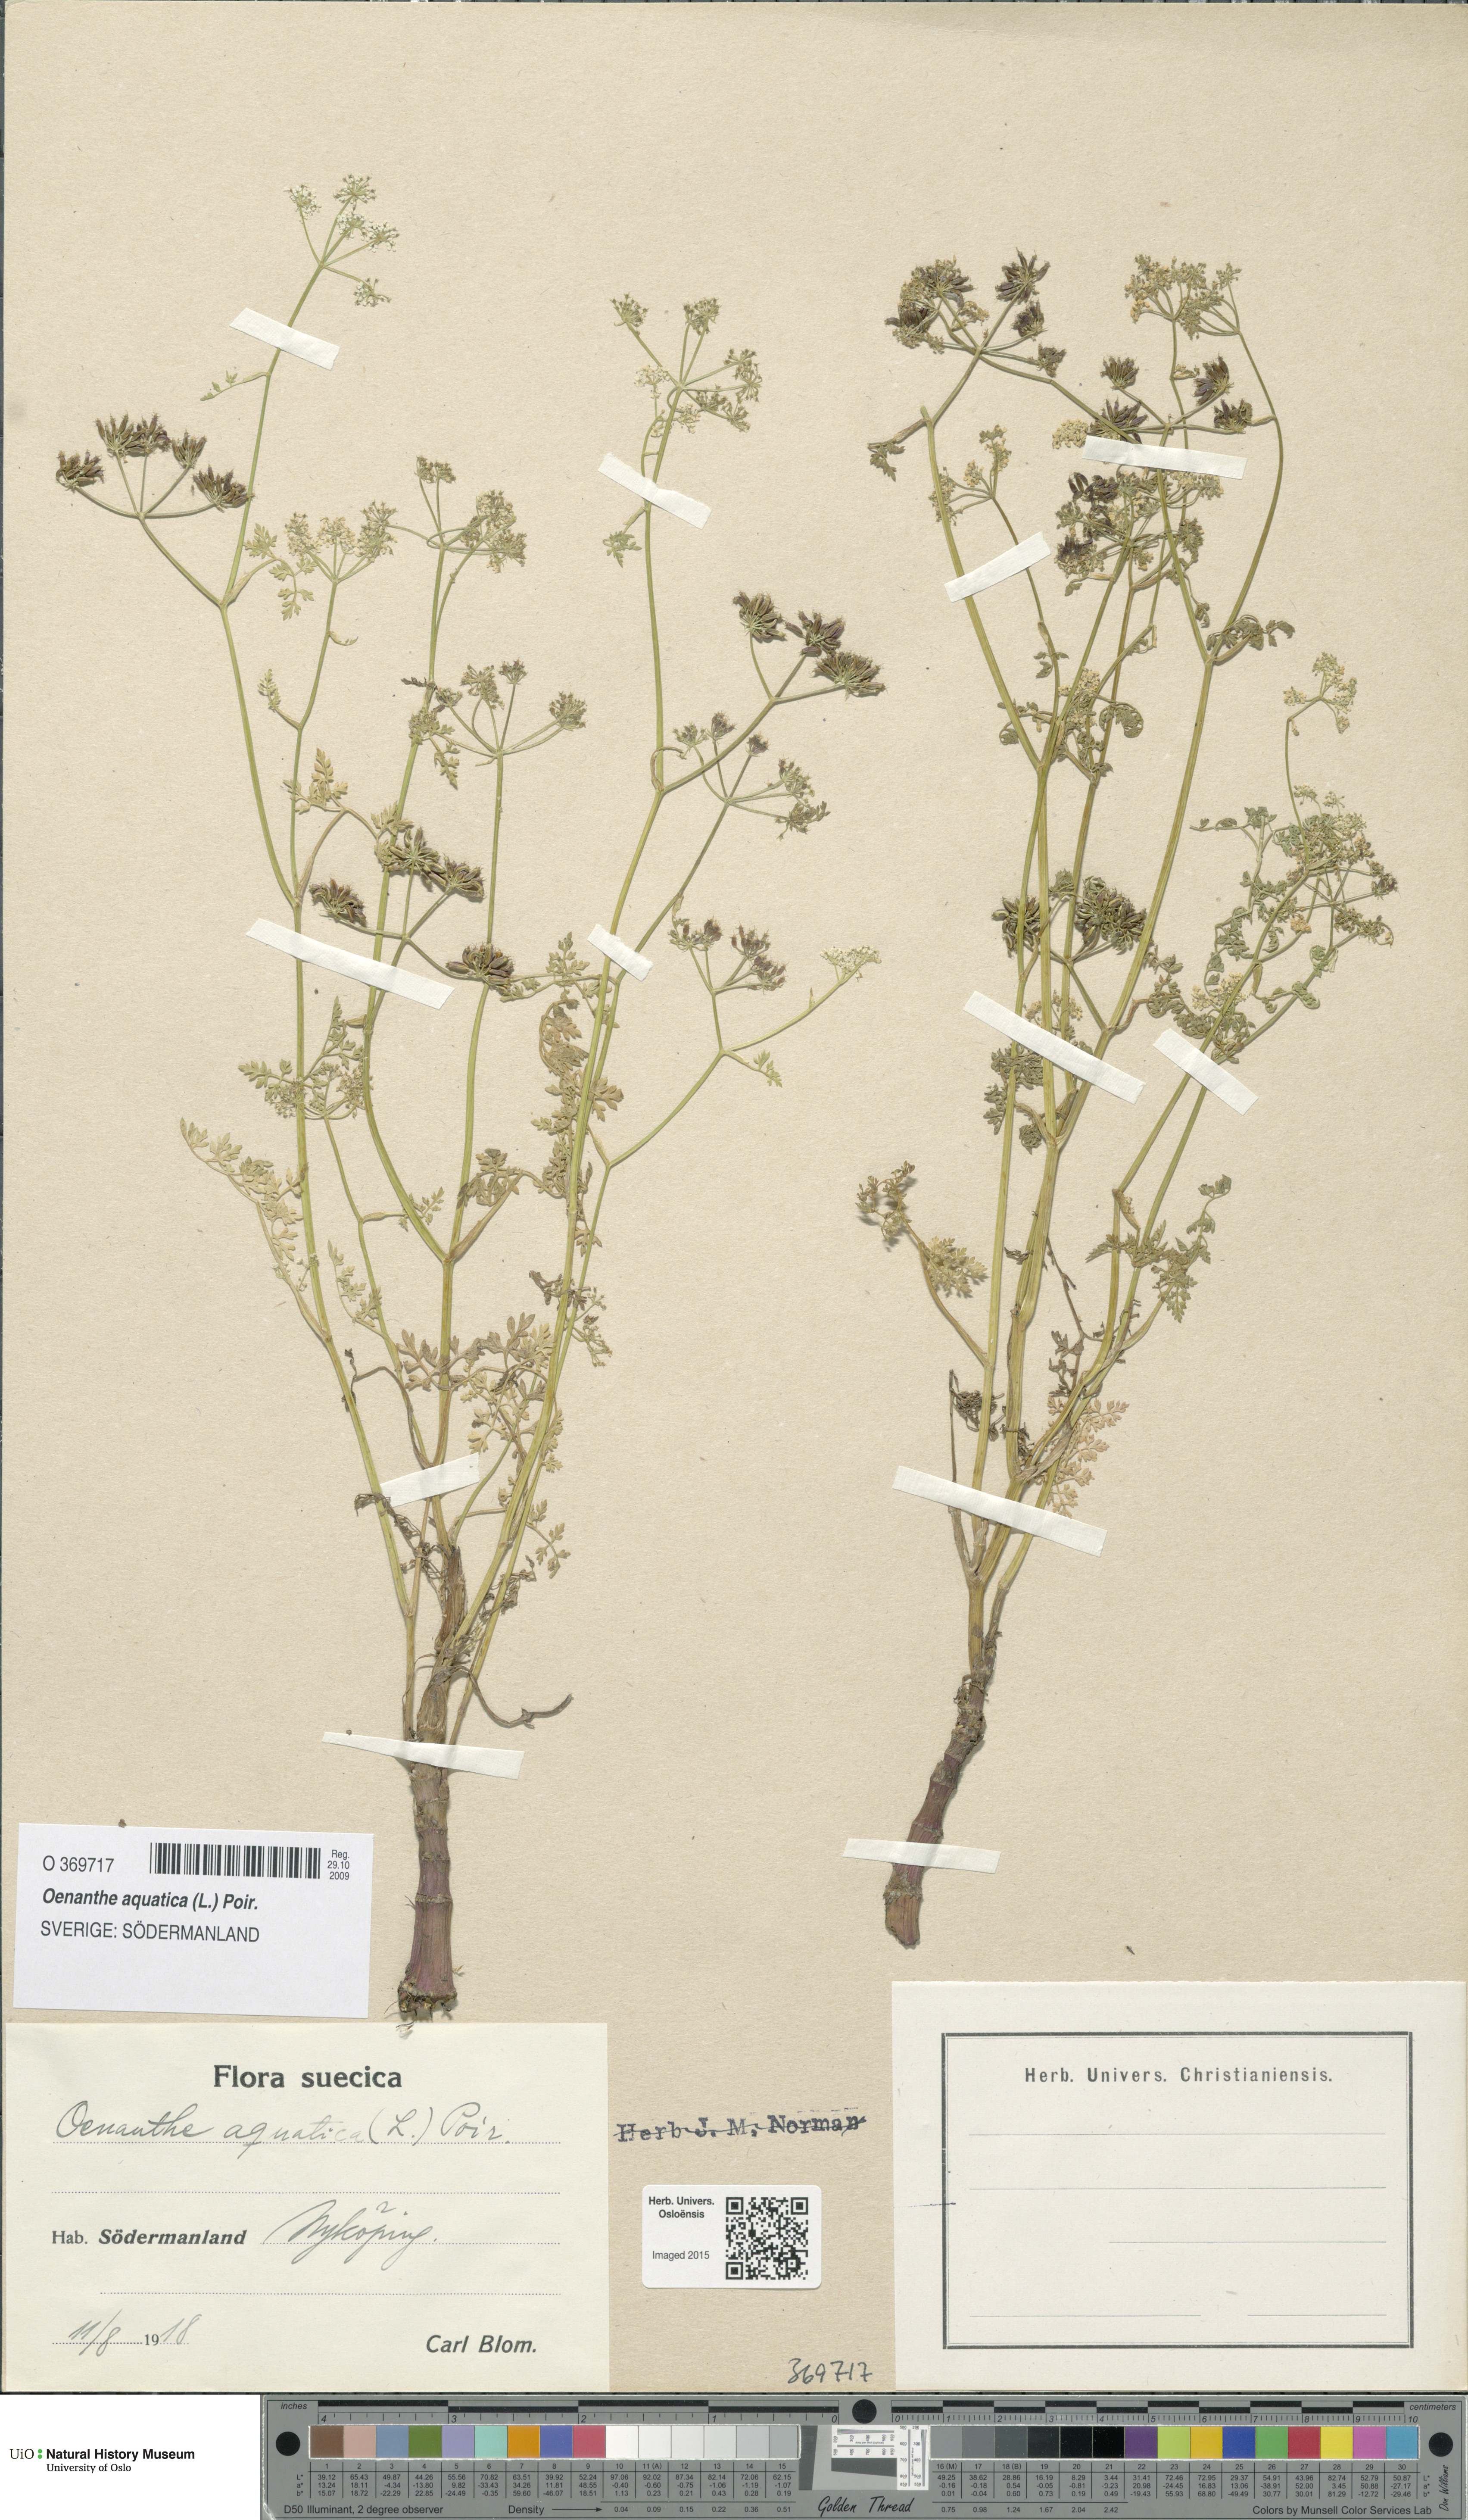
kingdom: Plantae
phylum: Tracheophyta
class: Magnoliopsida
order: Apiales
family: Apiaceae
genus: Oenanthe
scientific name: Oenanthe aquatica
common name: Fine-leaved water-dropwort
